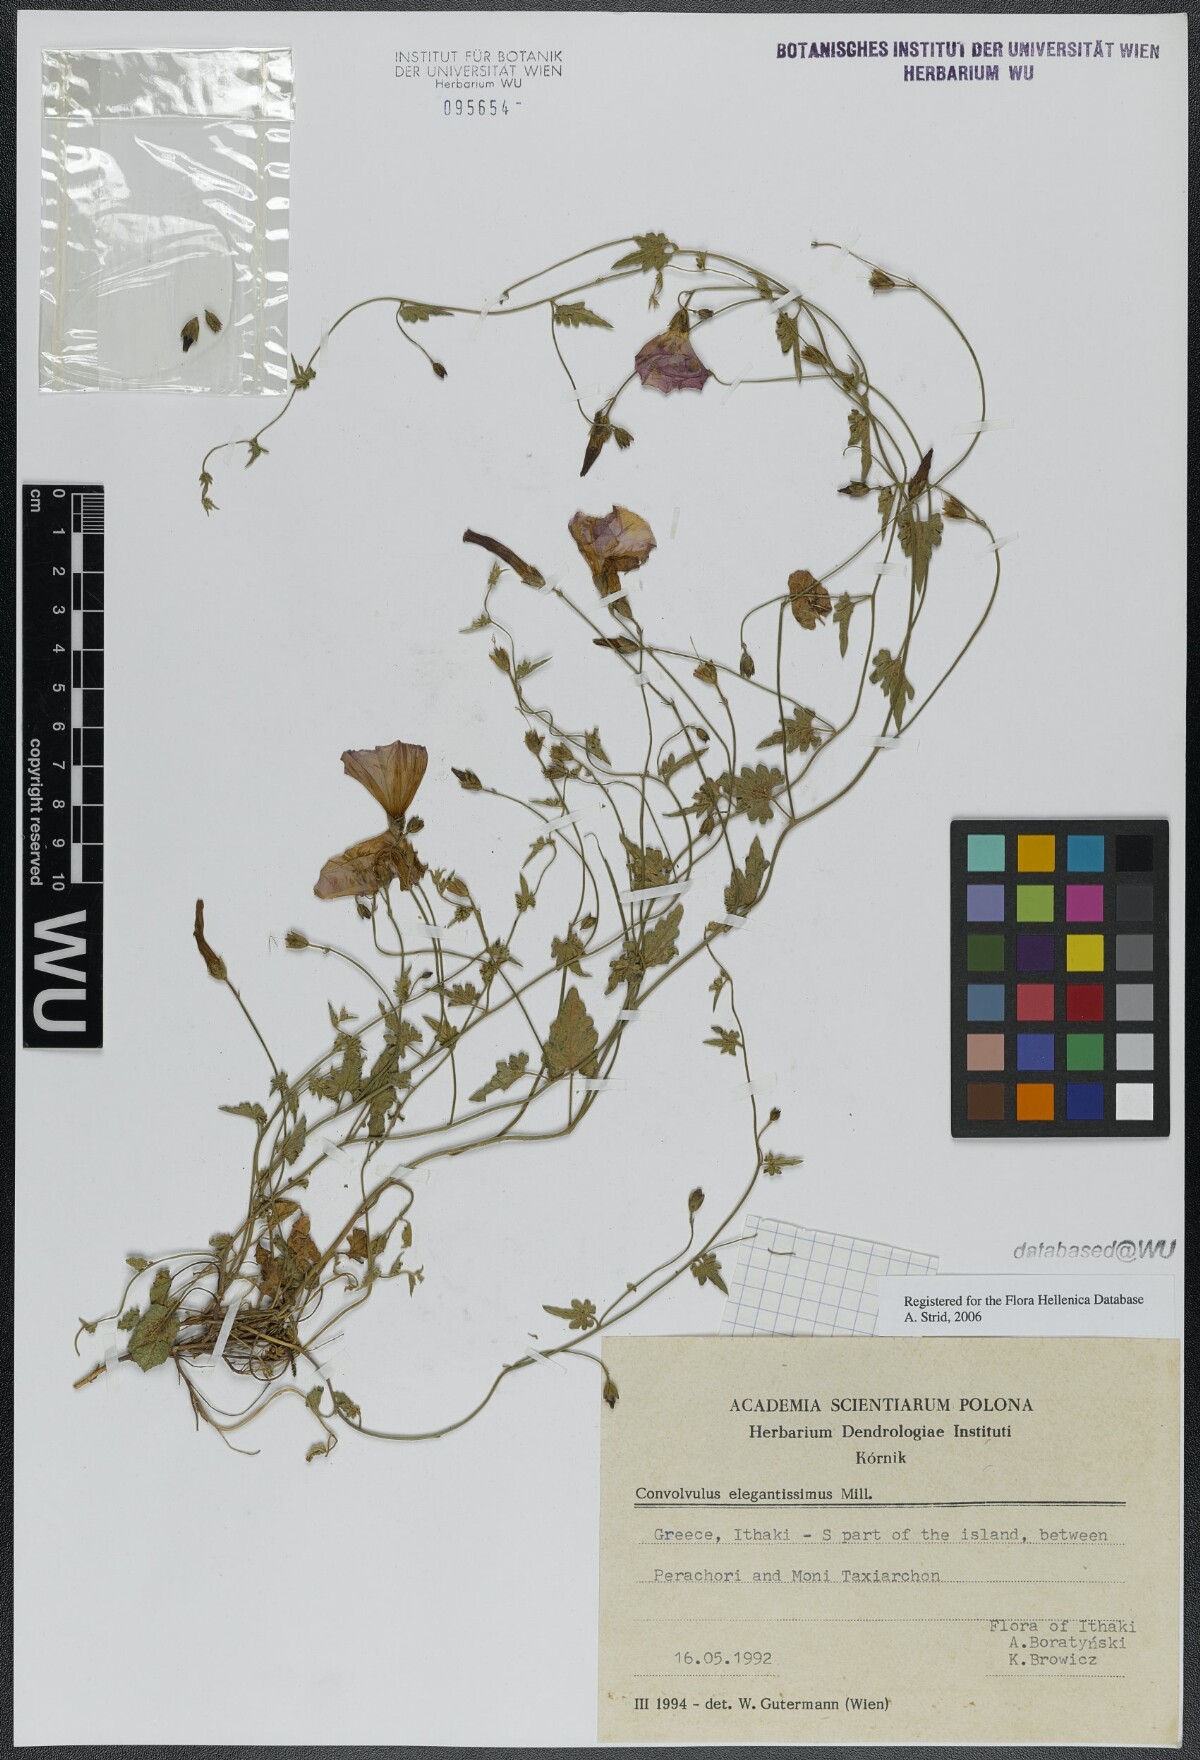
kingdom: Plantae
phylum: Tracheophyta
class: Magnoliopsida
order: Solanales
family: Convolvulaceae
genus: Convolvulus
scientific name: Convolvulus elegantissimus
